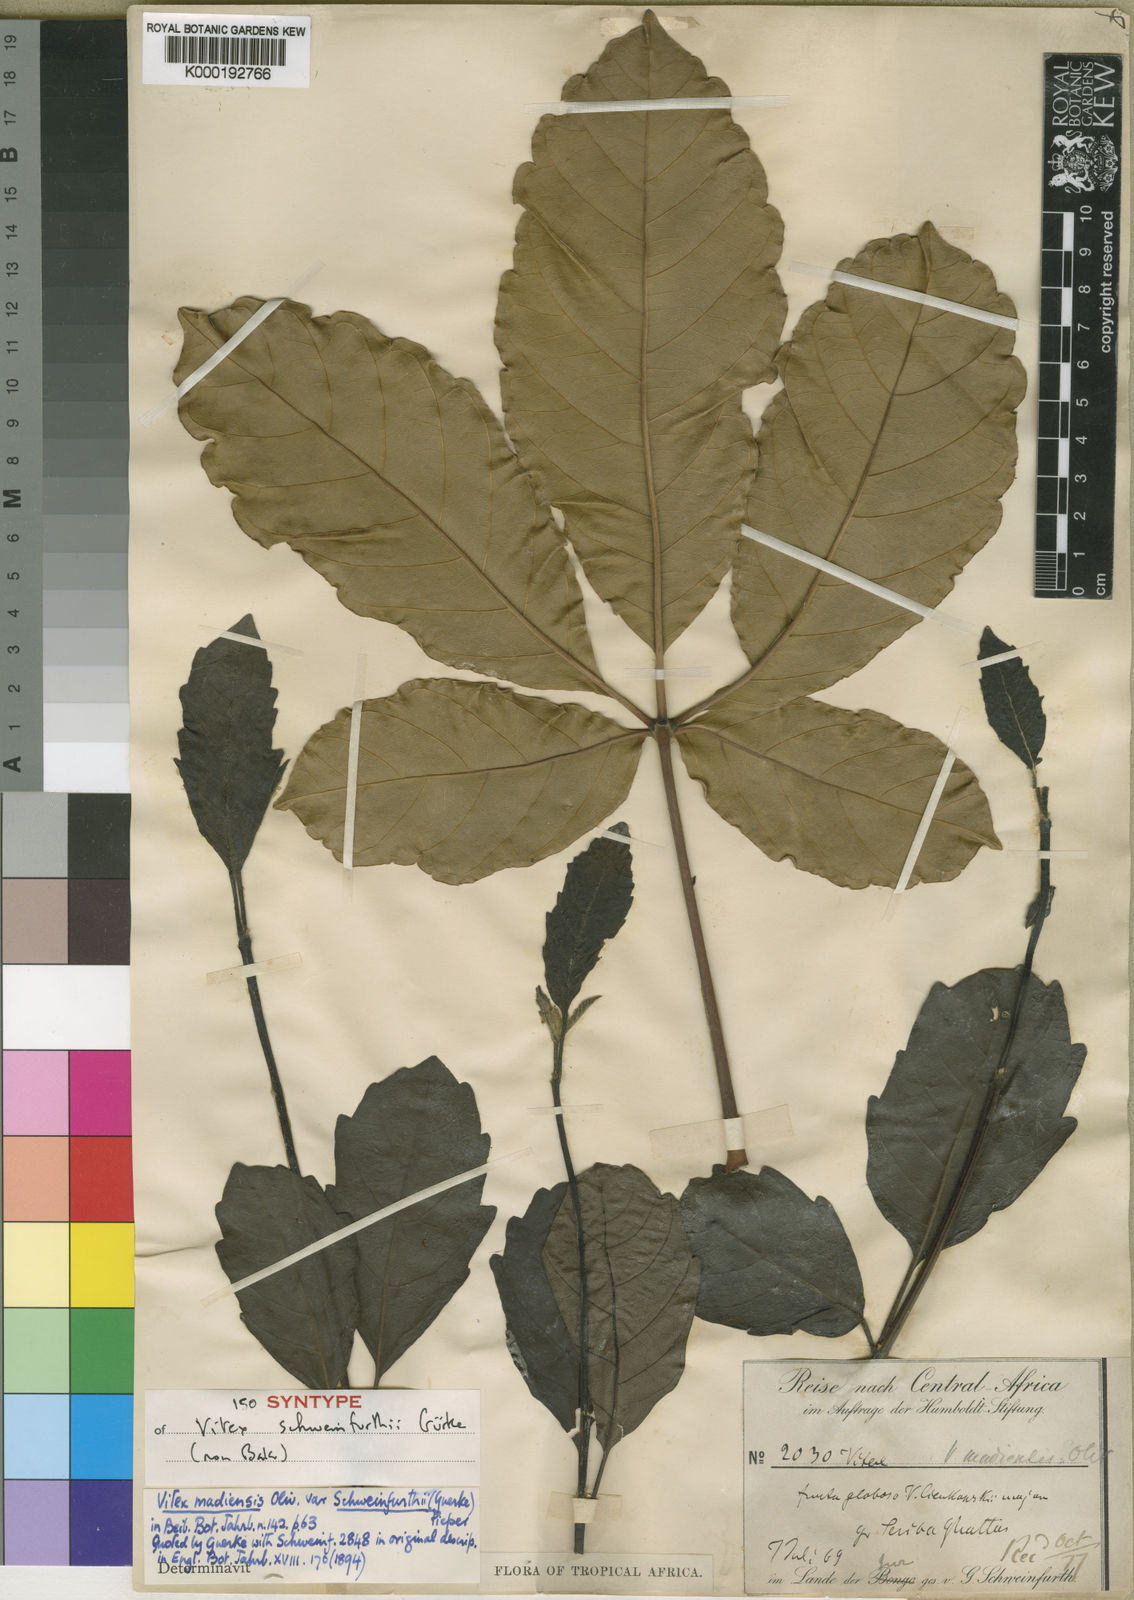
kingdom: Plantae
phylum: Tracheophyta
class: Magnoliopsida
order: Lamiales
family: Lamiaceae
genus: Vitex
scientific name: Vitex madiensis
